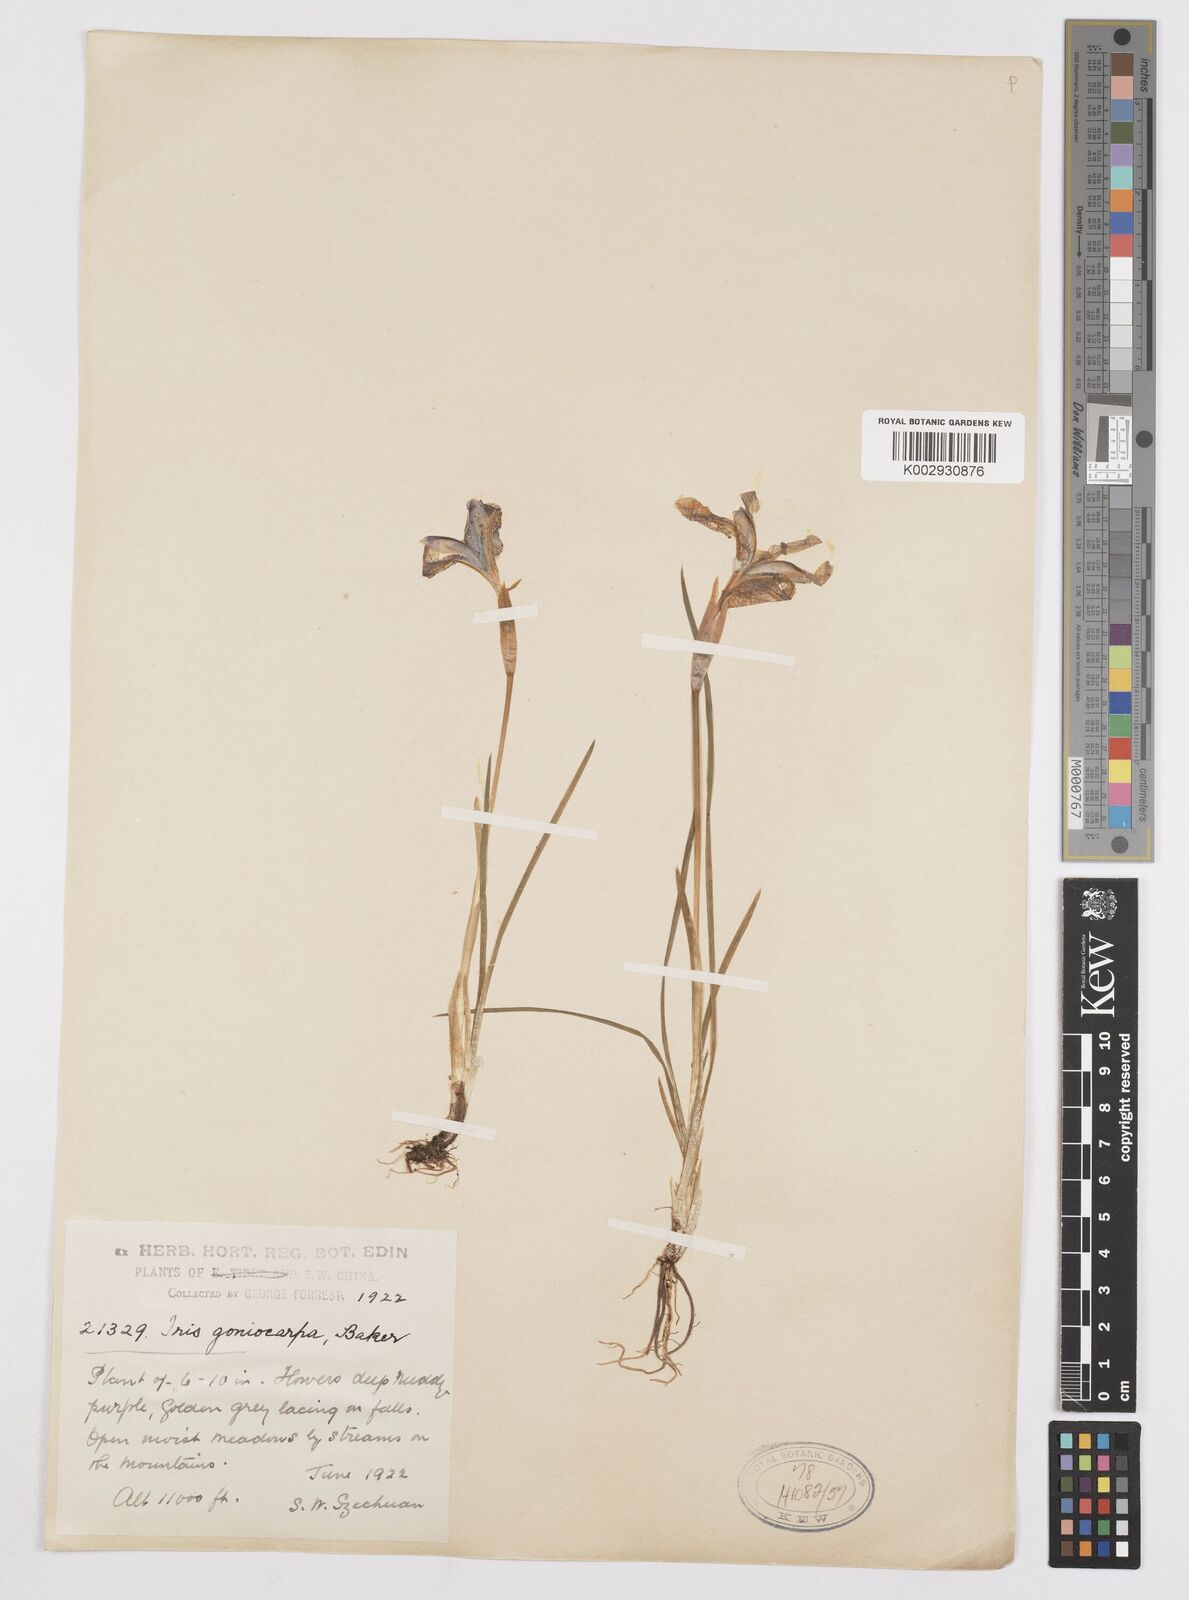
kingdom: Plantae
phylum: Tracheophyta
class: Liliopsida
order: Asparagales
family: Iridaceae
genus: Iris
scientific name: Iris goniocarpa
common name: Angular-fruit iris
